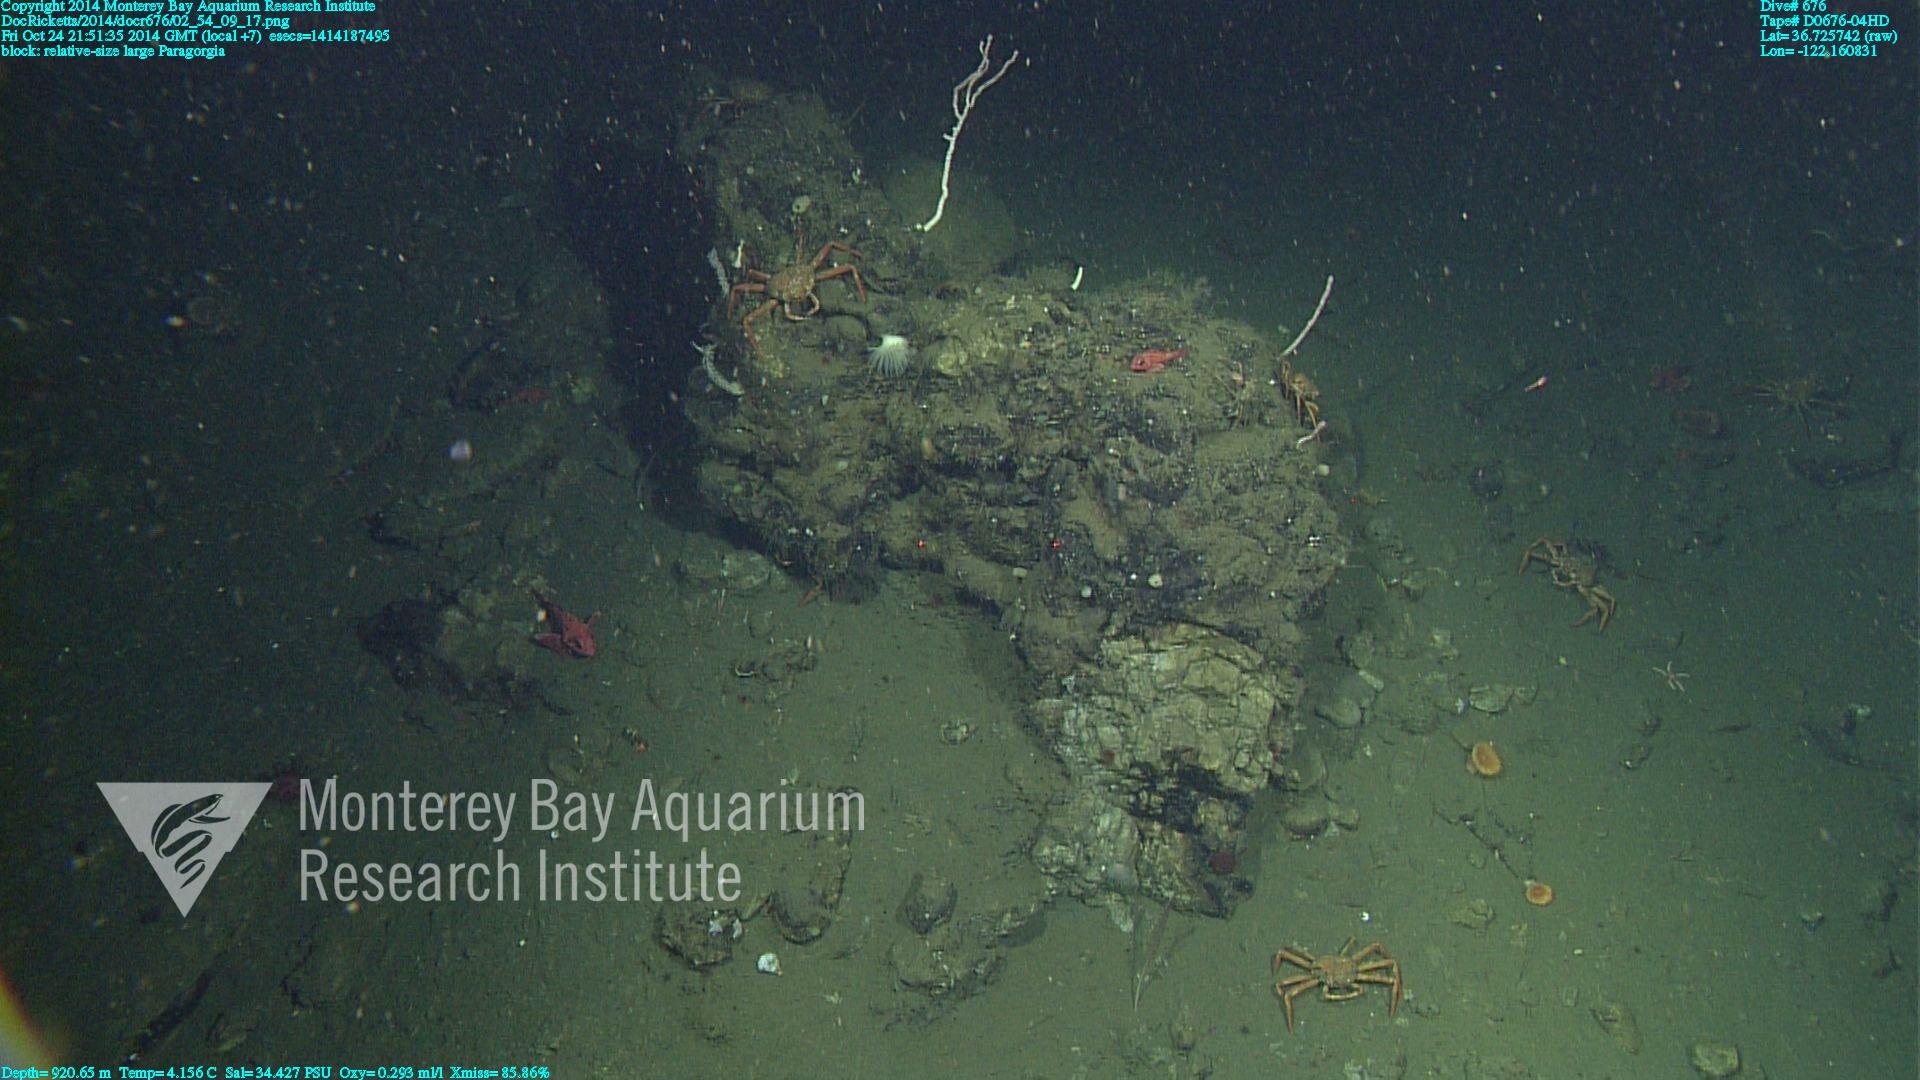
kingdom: Animalia
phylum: Cnidaria
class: Anthozoa
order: Scleralcyonacea
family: Coralliidae
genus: Paragorgia
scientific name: Paragorgia
